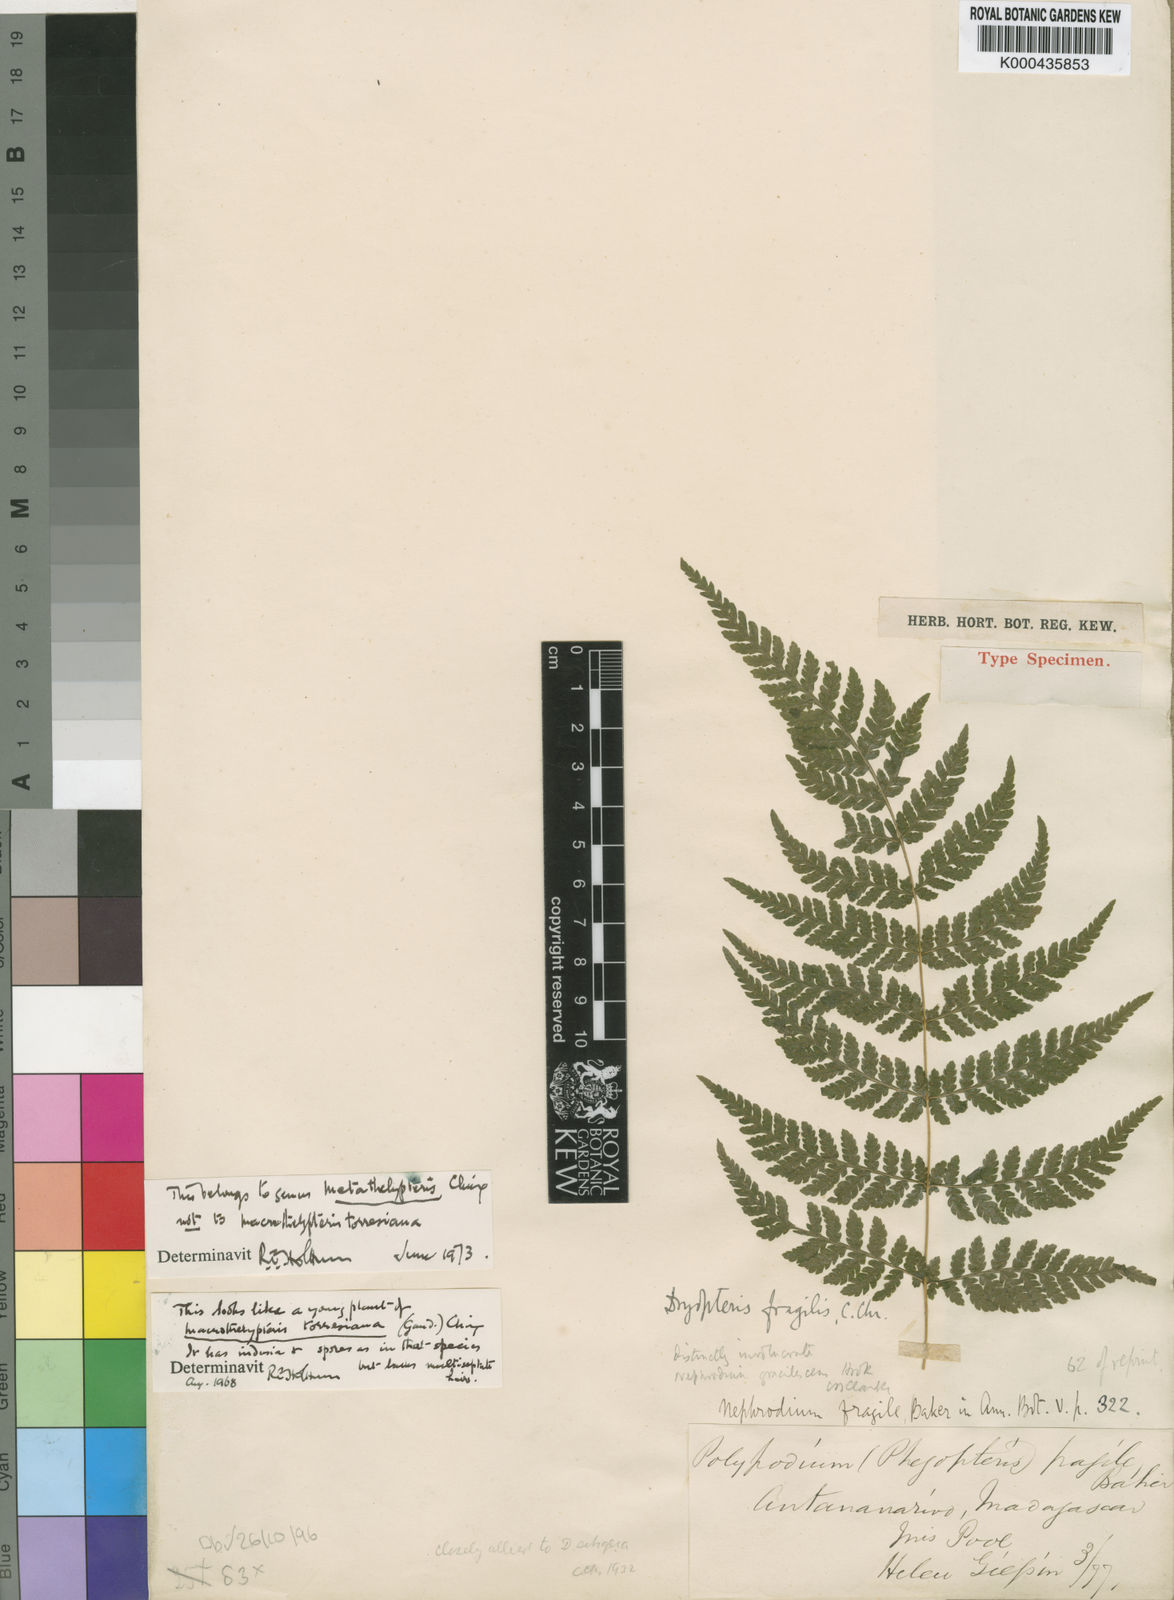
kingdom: Plantae
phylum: Tracheophyta
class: Polypodiopsida
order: Polypodiales
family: Thelypteridaceae
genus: Metathelypteris
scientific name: Metathelypteris fragilis
